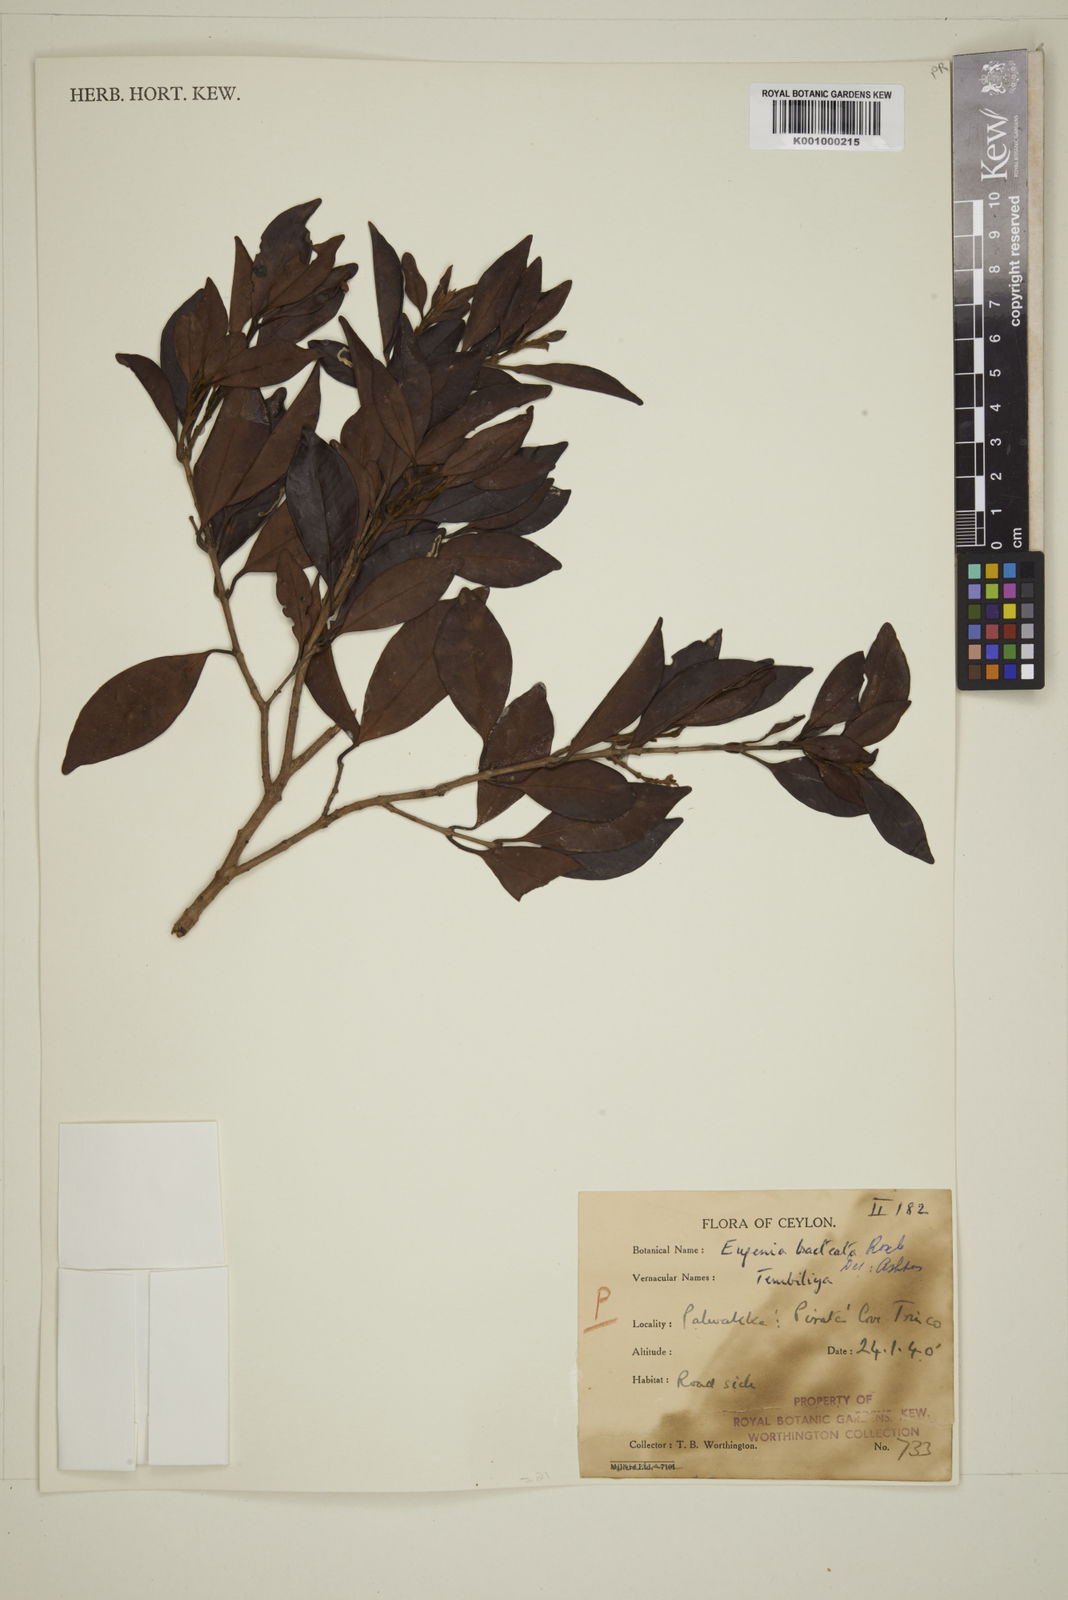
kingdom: Plantae
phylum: Tracheophyta
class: Magnoliopsida
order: Myrtales
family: Myrtaceae
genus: Eugenia
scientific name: Eugenia pseudopsidium
